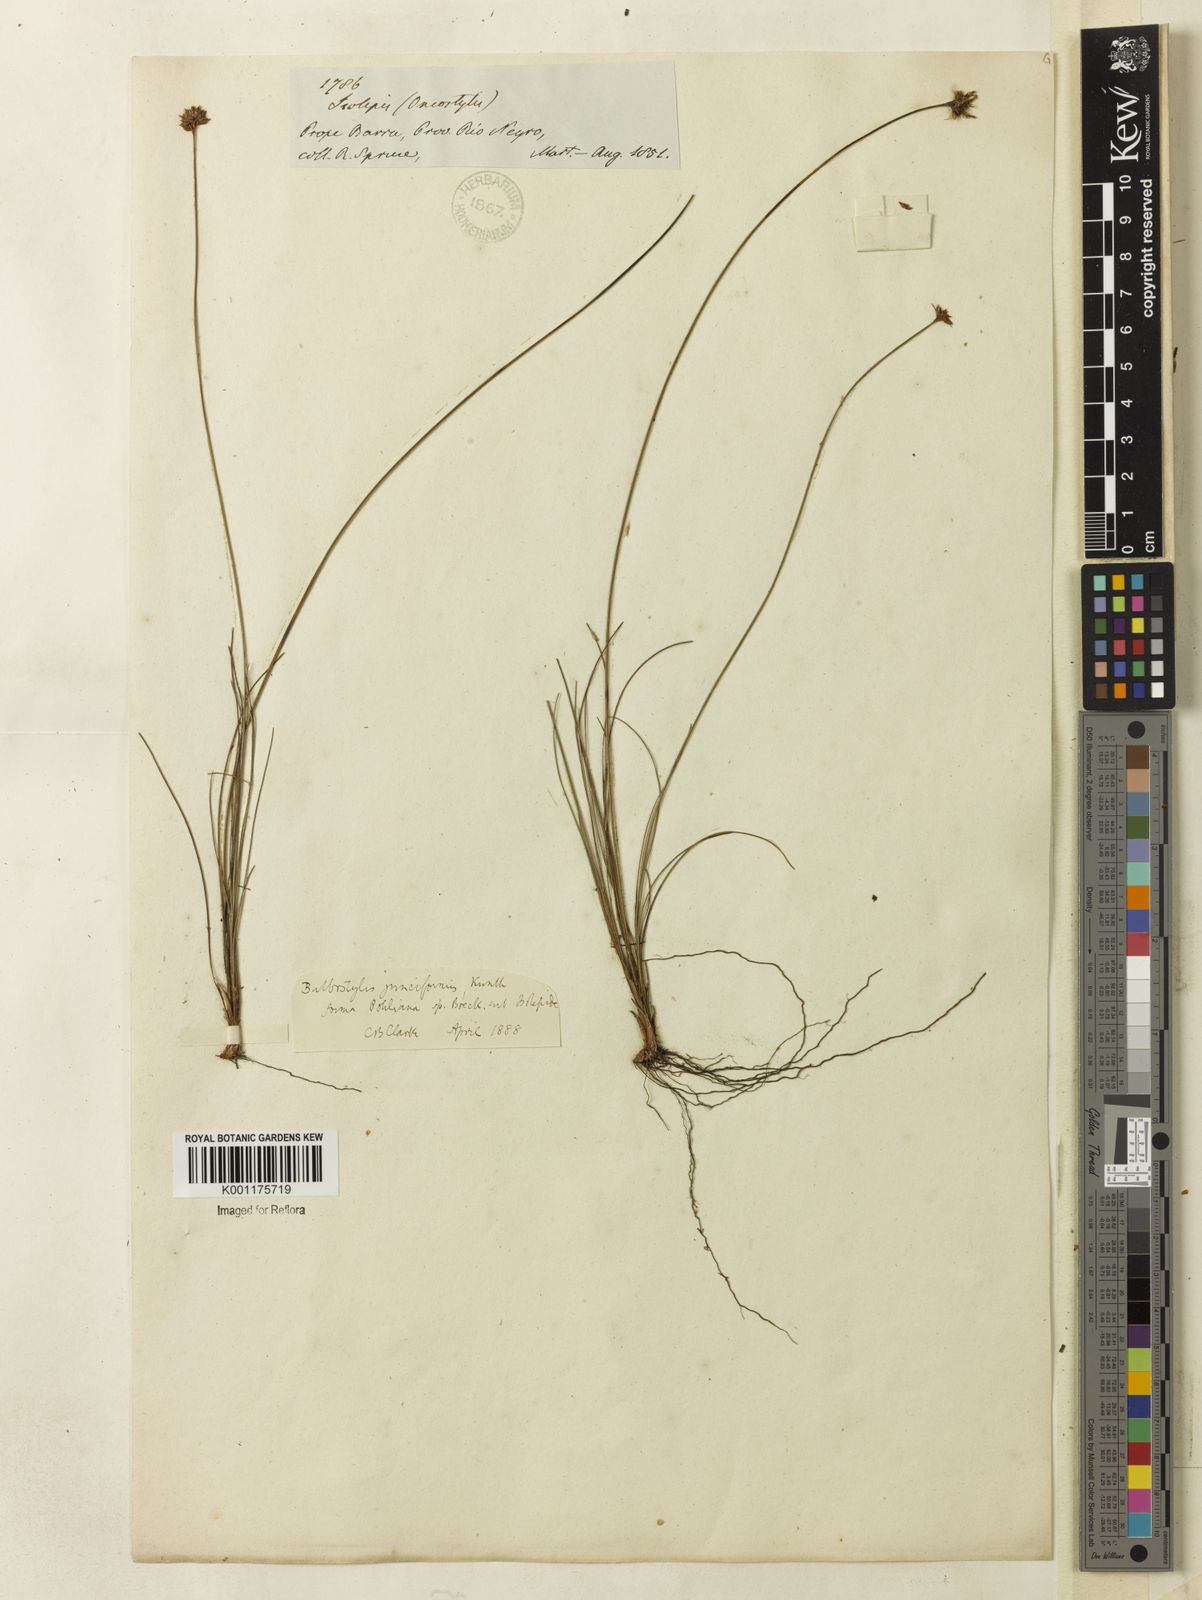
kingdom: Plantae
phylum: Tracheophyta
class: Liliopsida
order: Poales
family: Cyperaceae
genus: Bulbostylis
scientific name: Bulbostylis junciformis
